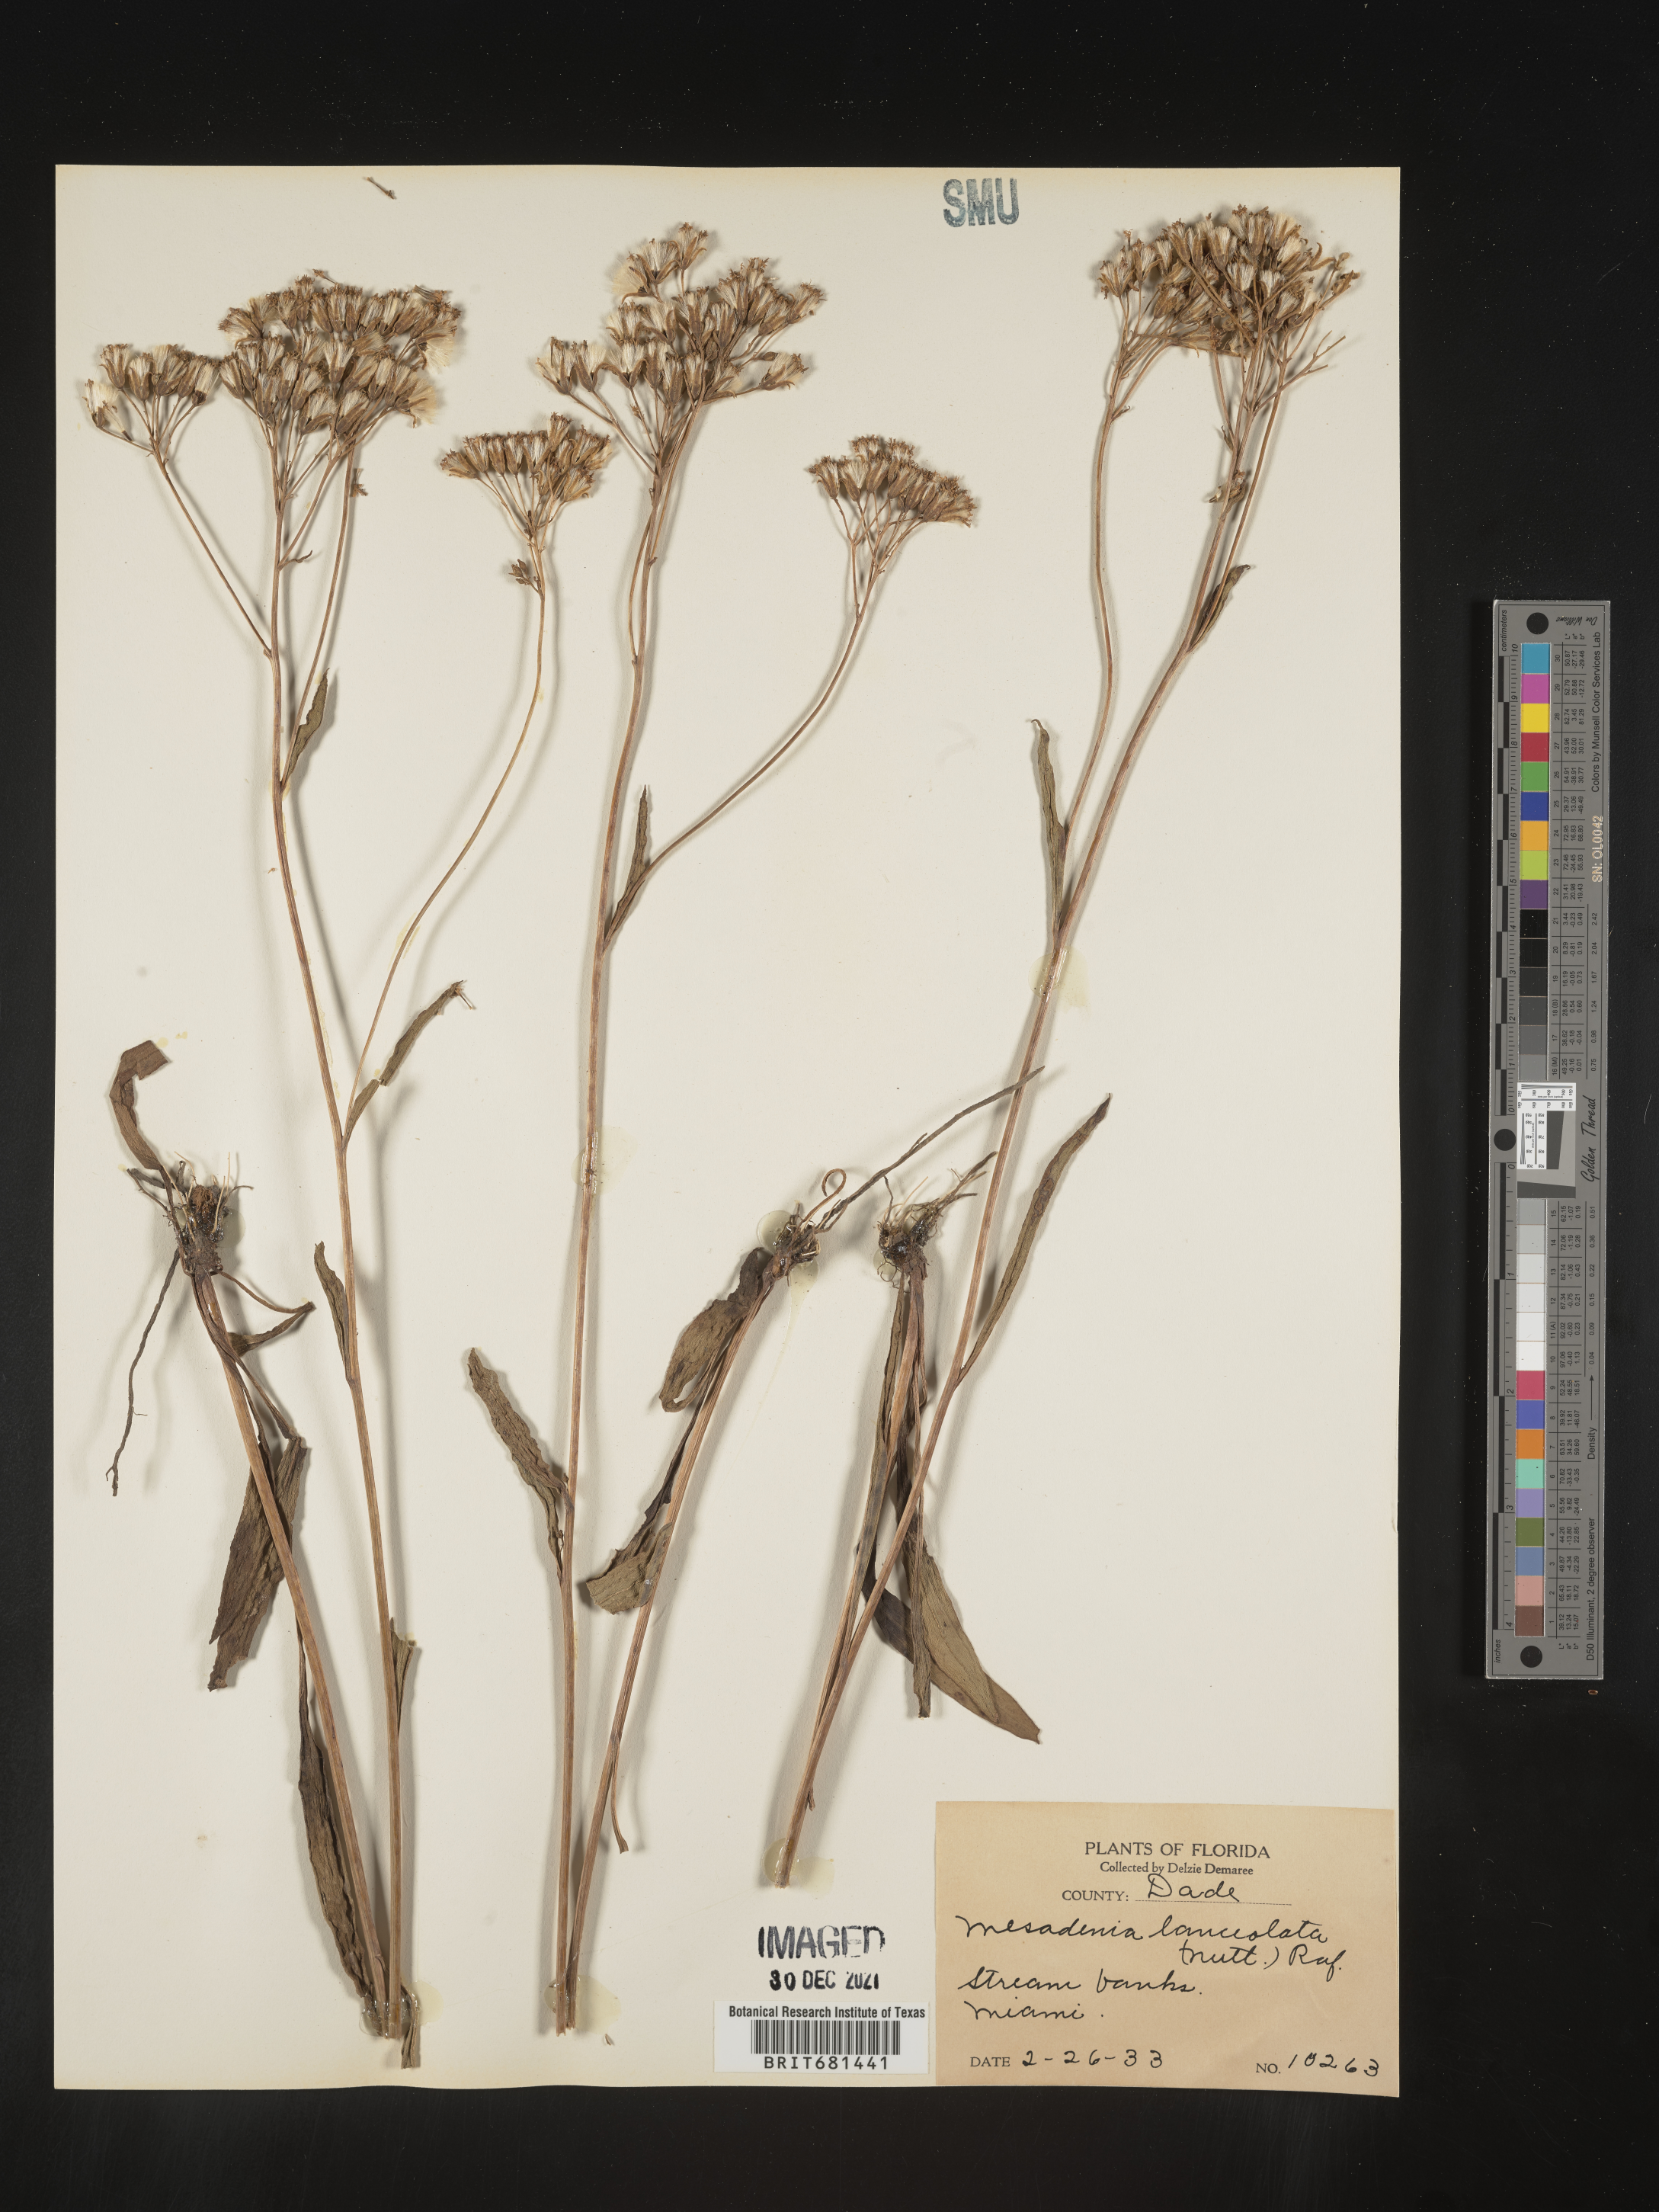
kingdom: Plantae
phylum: Tracheophyta
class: Magnoliopsida
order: Asterales
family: Asteraceae
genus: Arnoglossum
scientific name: Arnoglossum ovatum
